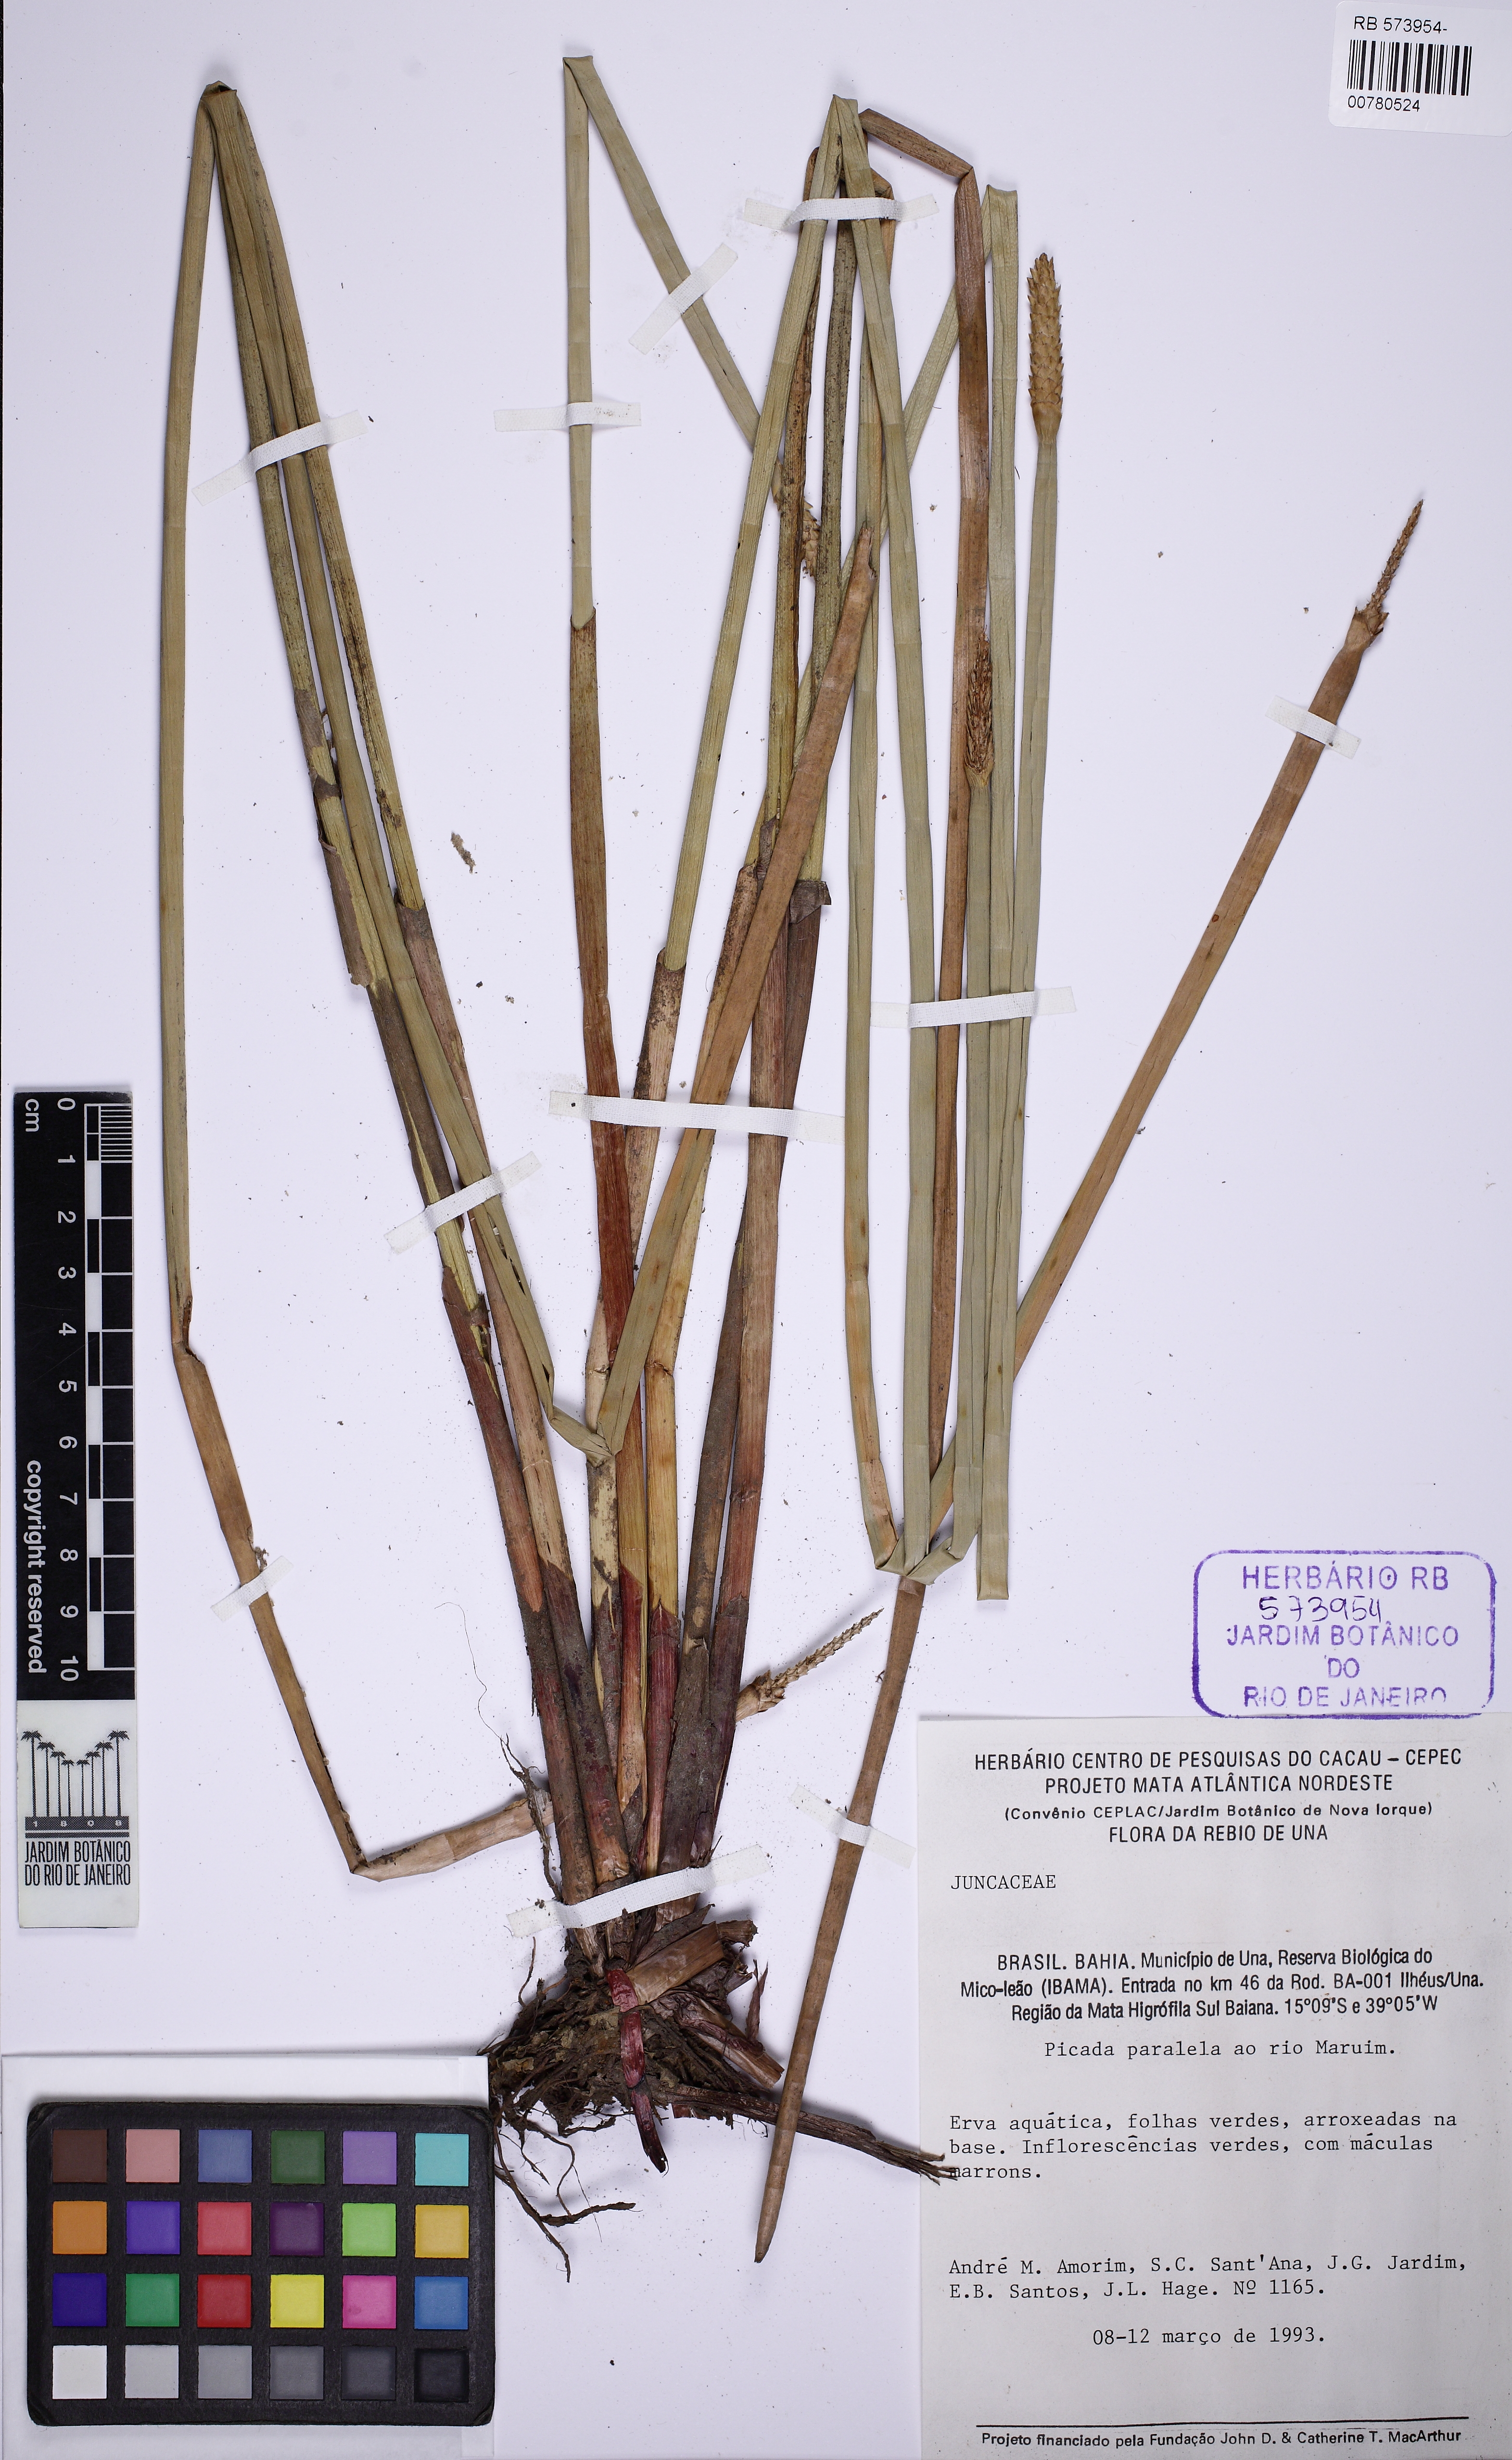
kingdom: Plantae
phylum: Tracheophyta
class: Liliopsida
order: Poales
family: Juncaceae
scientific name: Juncaceae
